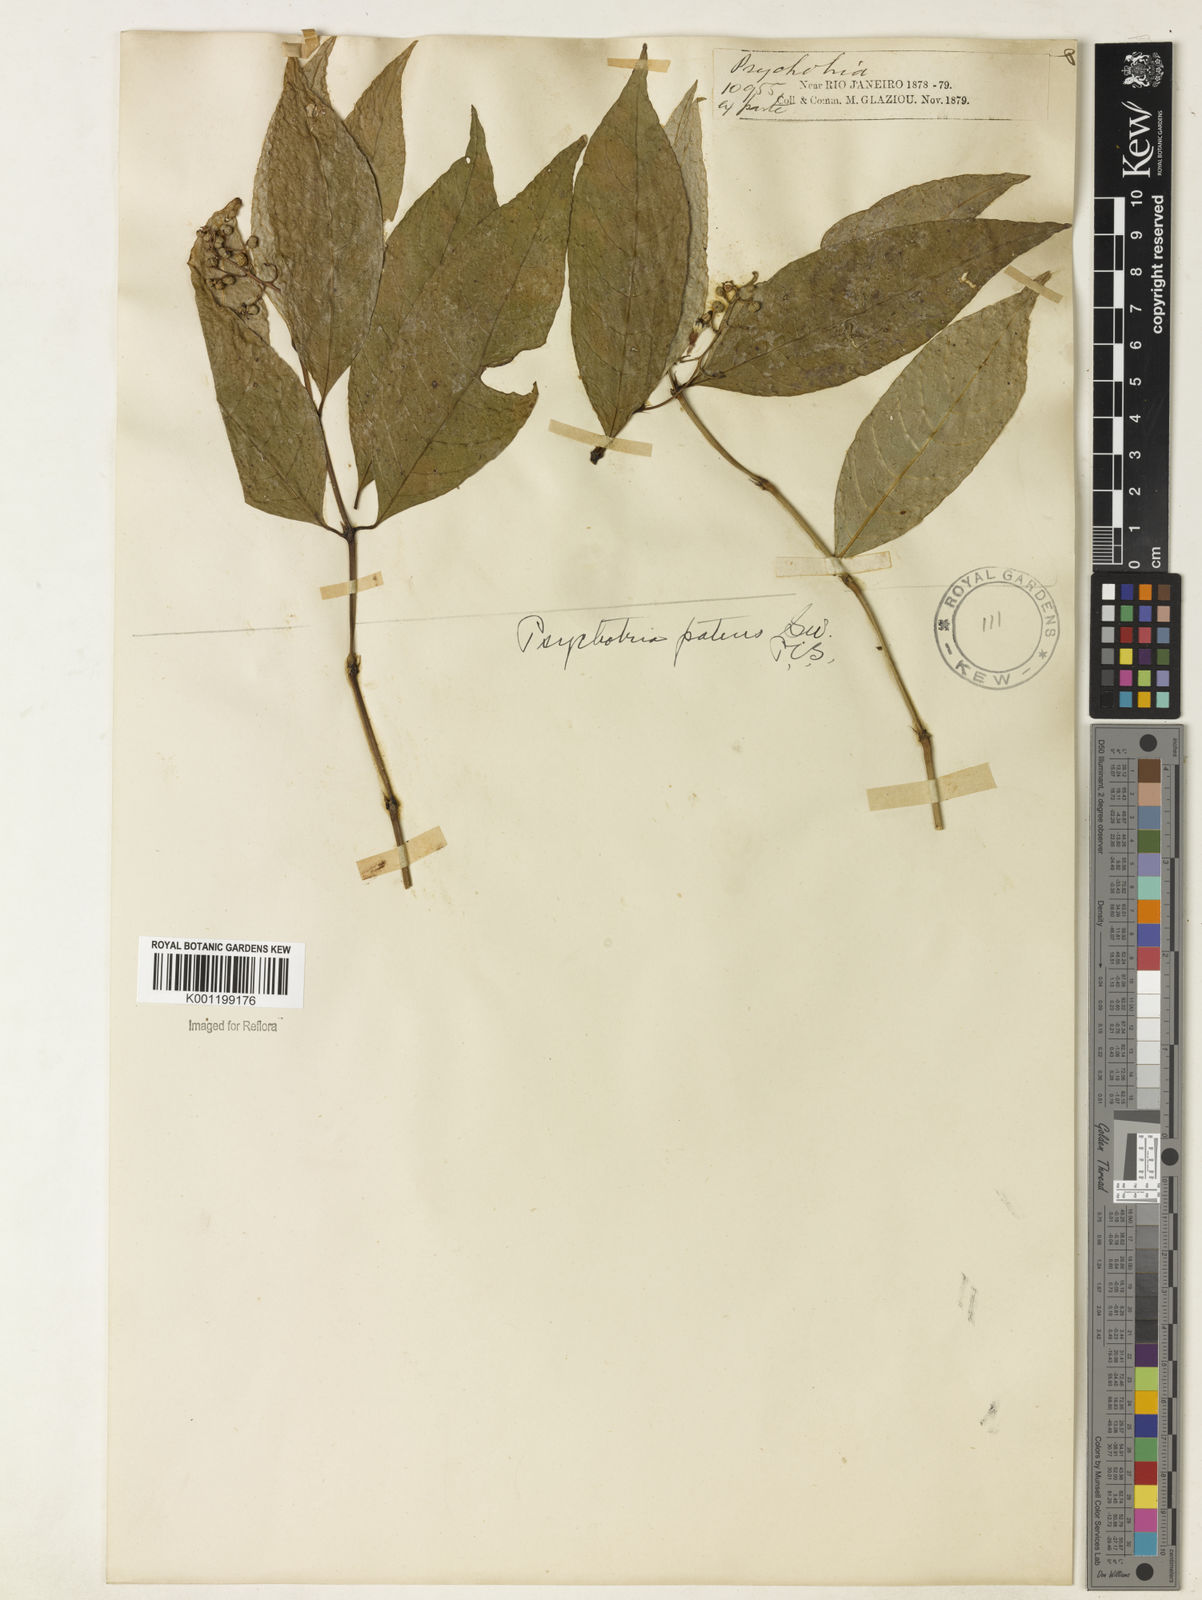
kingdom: Plantae
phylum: Tracheophyta
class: Magnoliopsida
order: Gentianales
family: Rubiaceae
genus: Palicourea
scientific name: Palicourea deflexa
